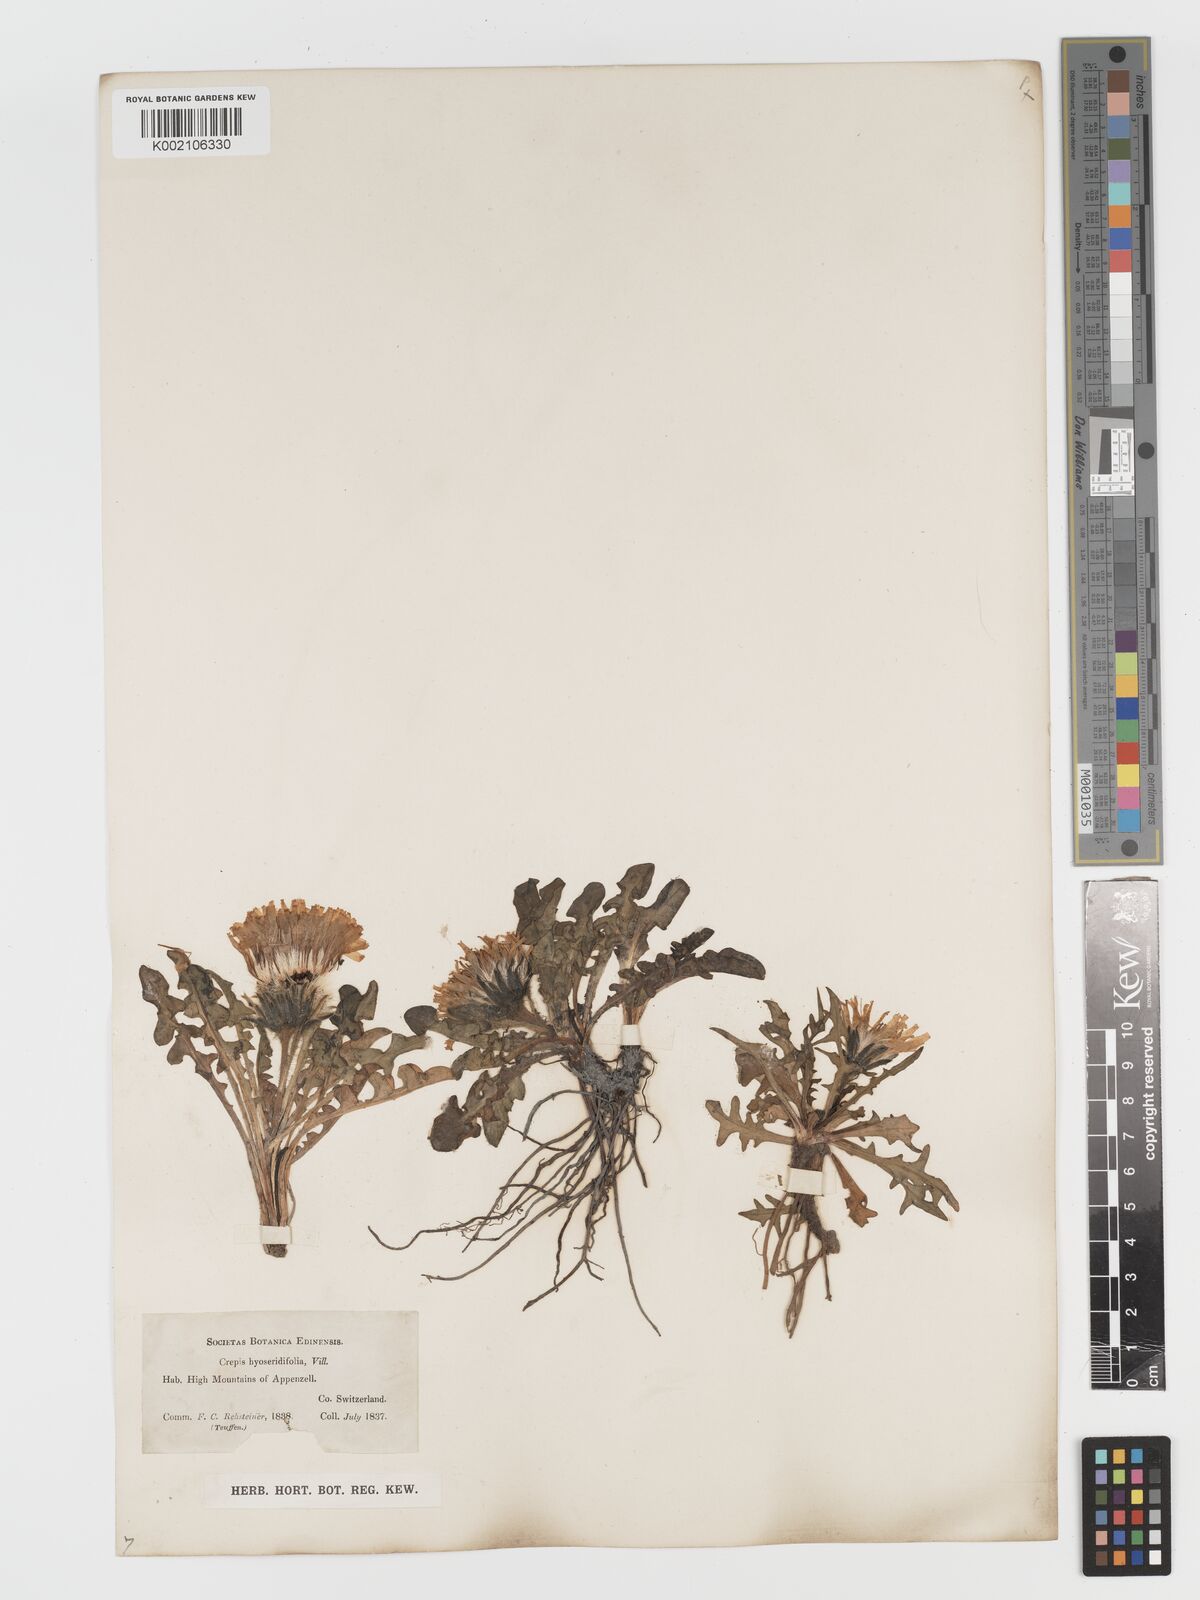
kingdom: Plantae
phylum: Tracheophyta
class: Magnoliopsida
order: Asterales
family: Asteraceae
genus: Crepis
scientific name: Crepis
